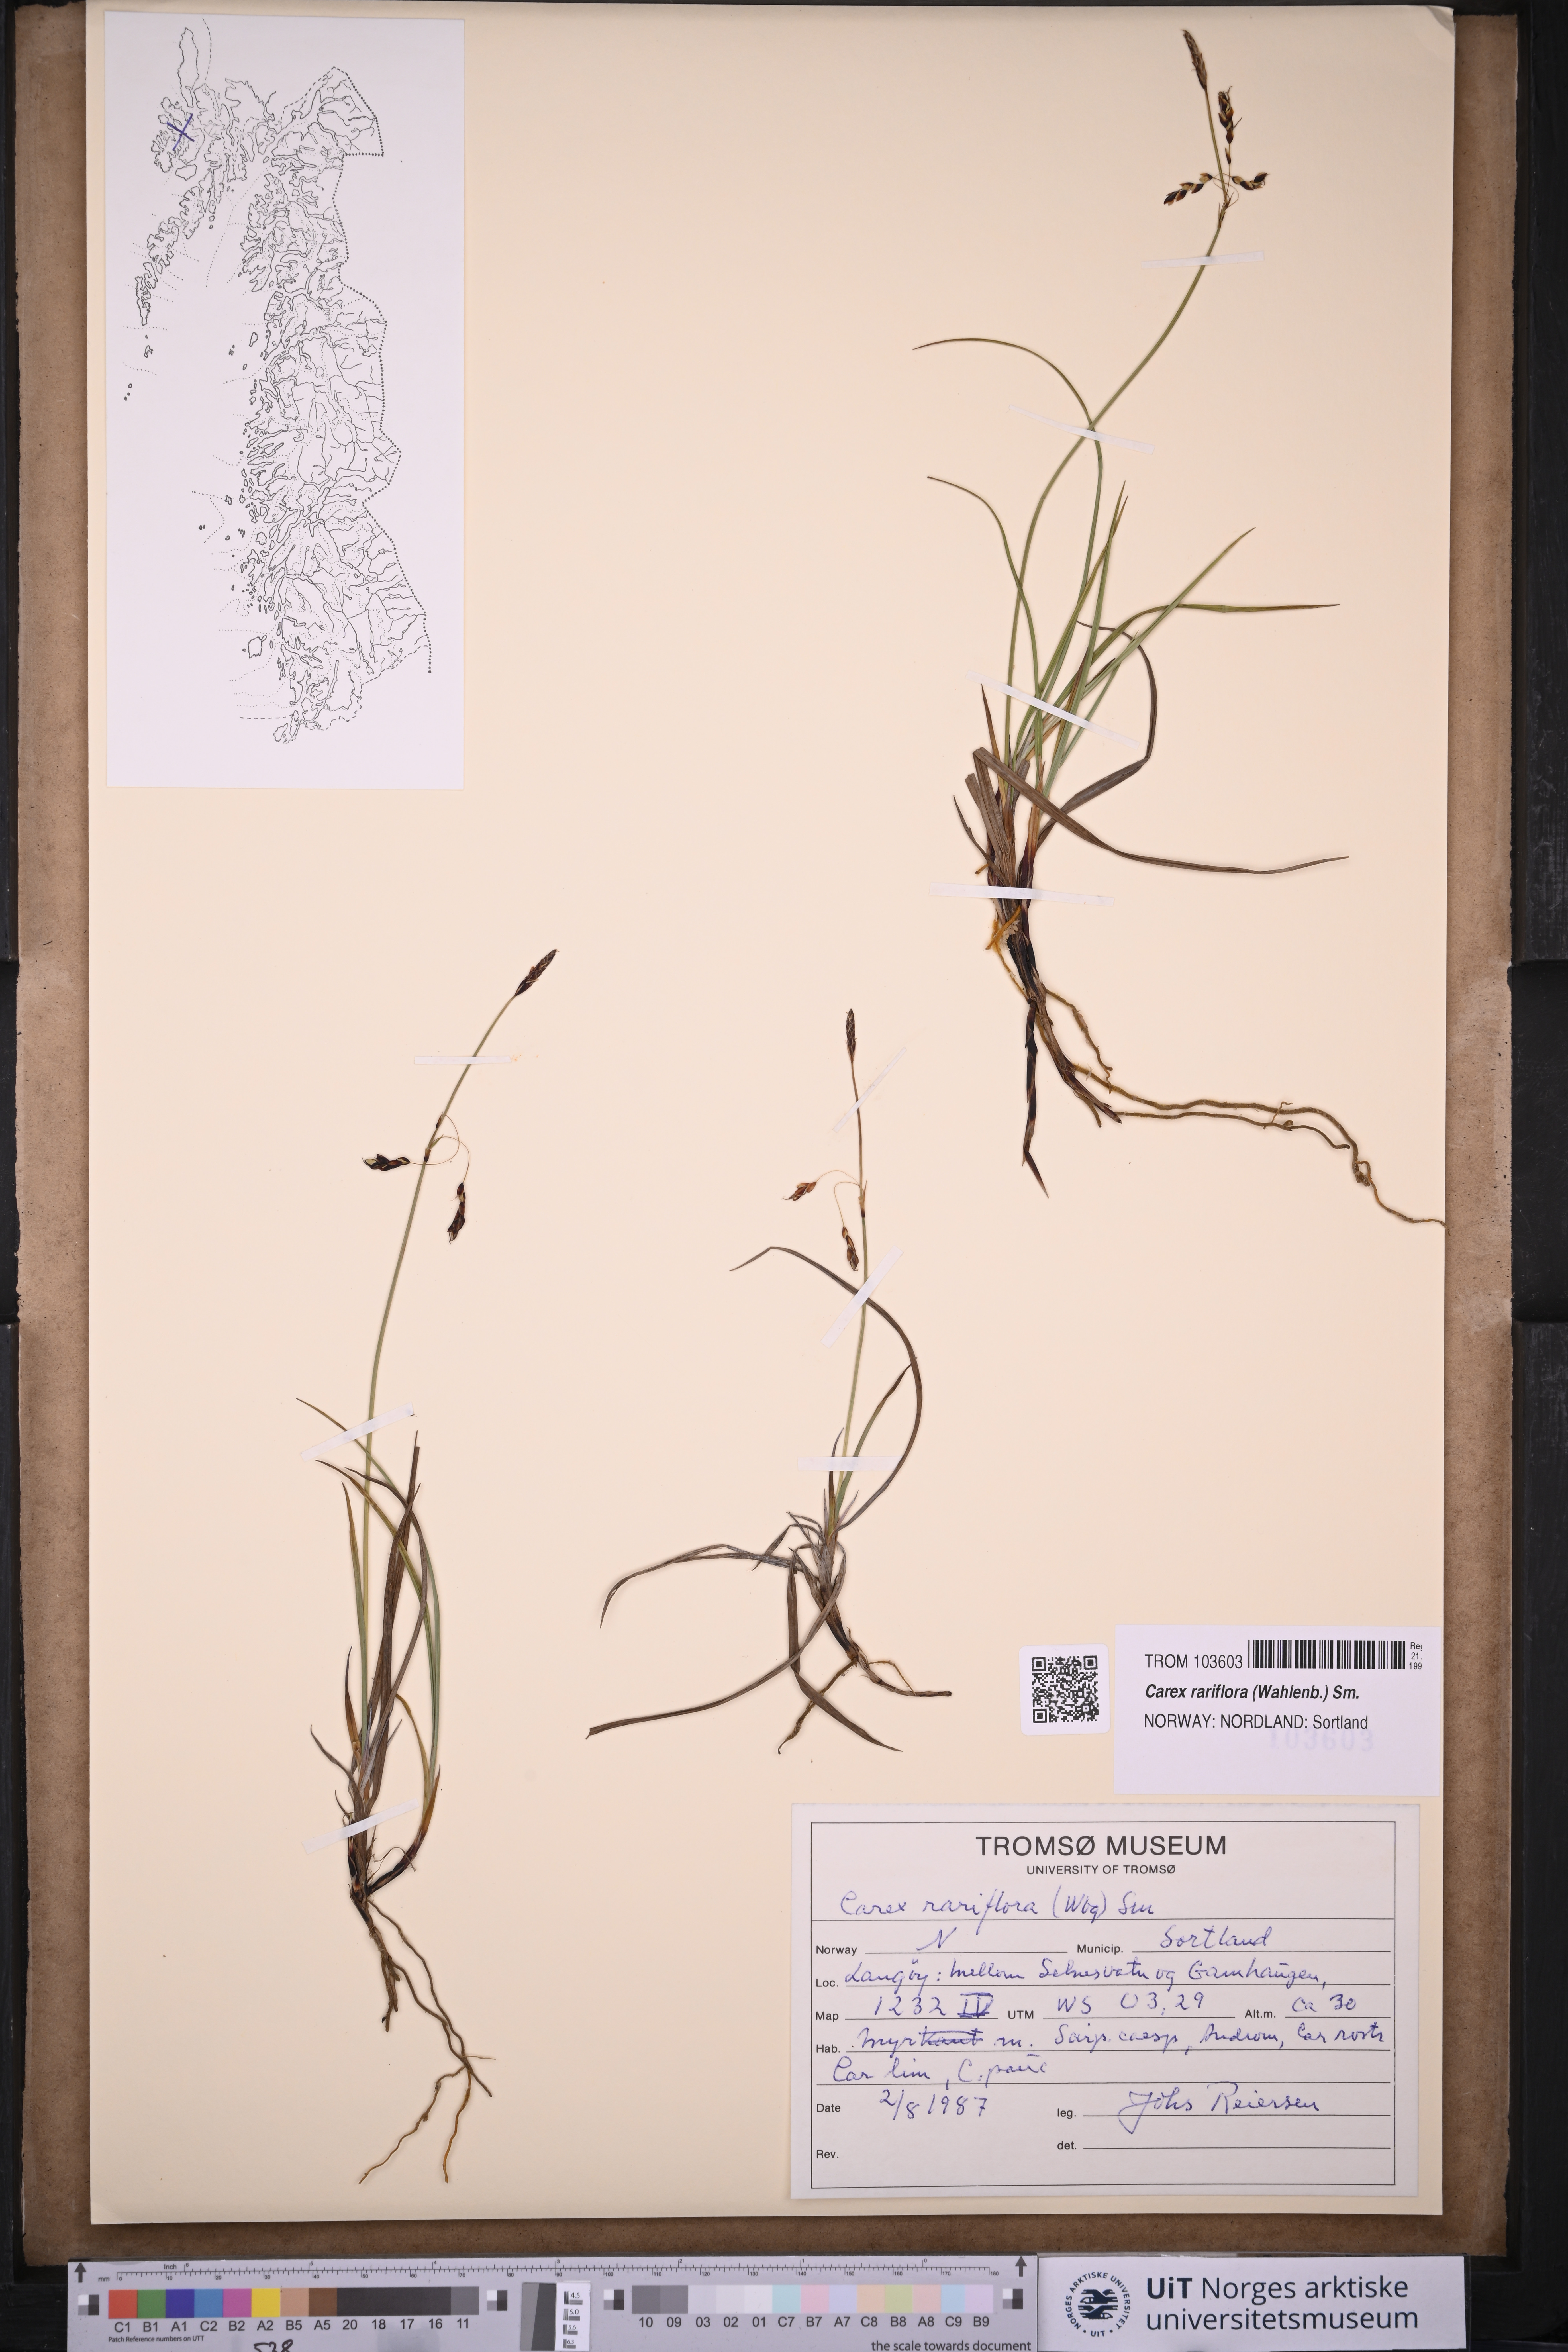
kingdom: Plantae
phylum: Tracheophyta
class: Liliopsida
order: Poales
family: Cyperaceae
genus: Carex
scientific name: Carex rariflora
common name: Loose-flowered alpine sedge
